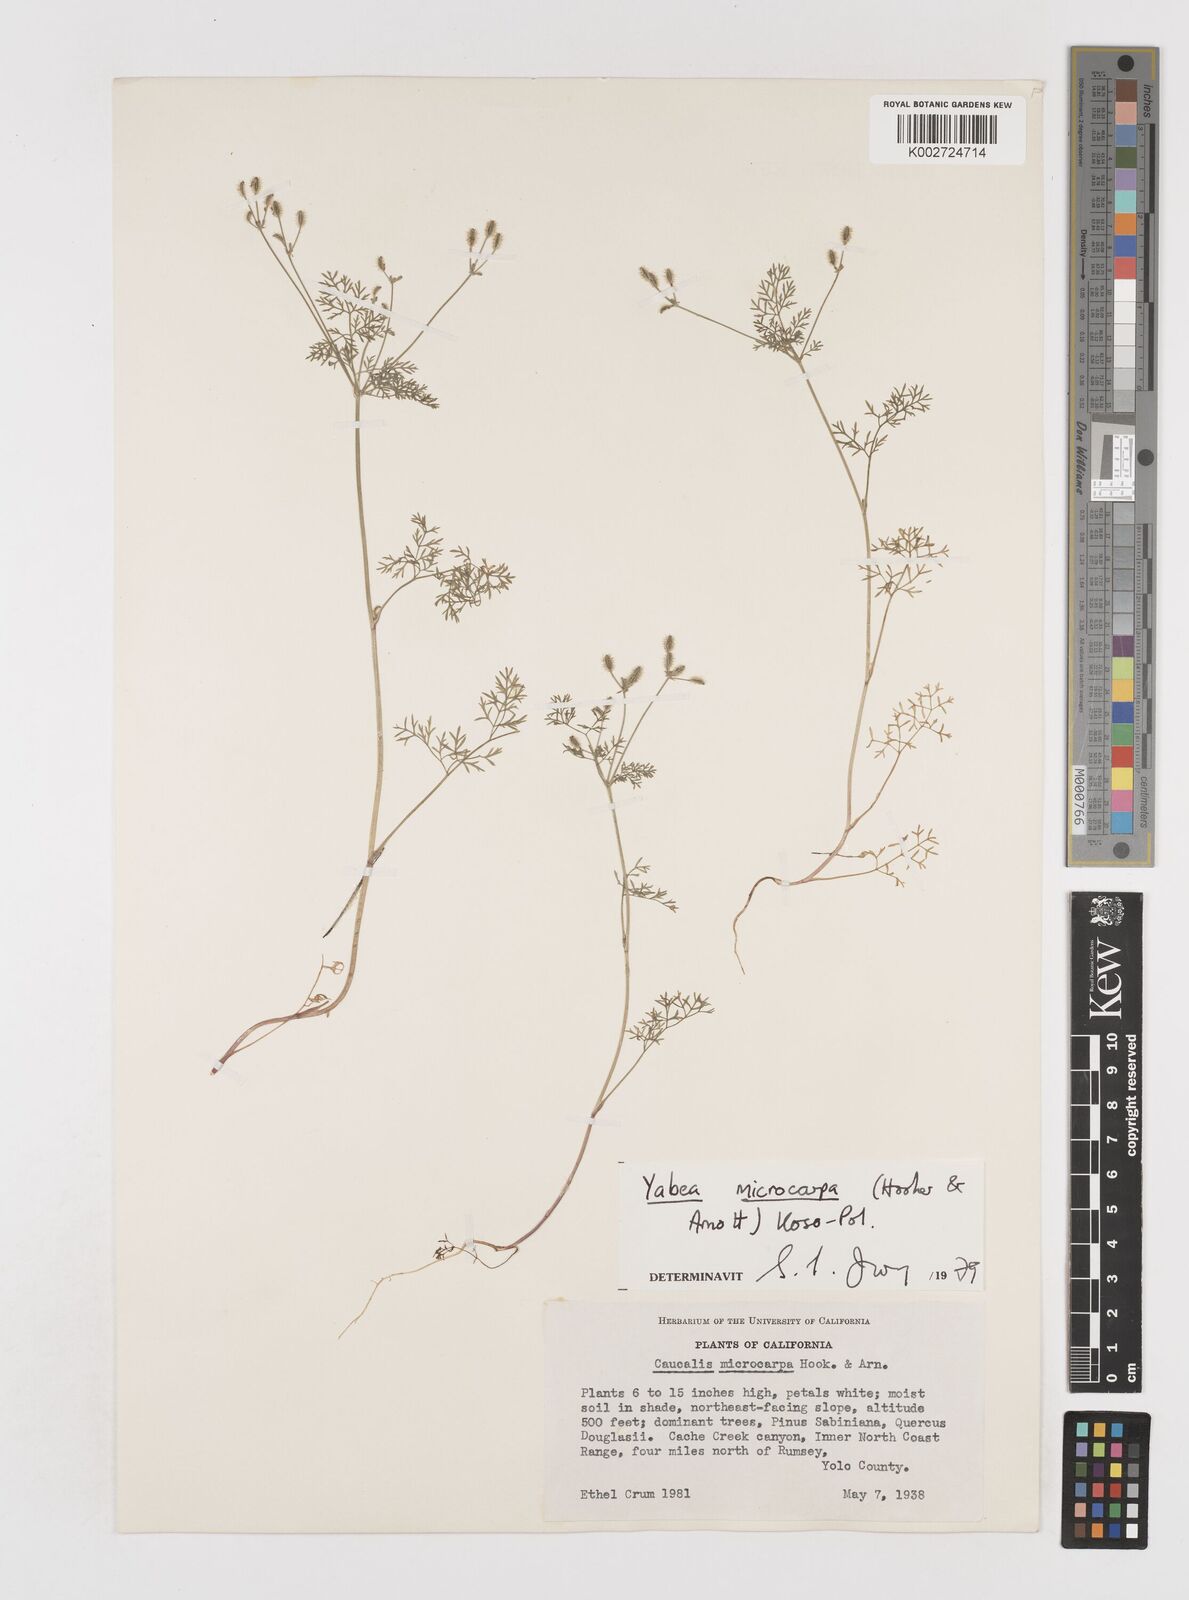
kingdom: Plantae
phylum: Tracheophyta
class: Magnoliopsida
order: Apiales
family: Apiaceae
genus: Yabea
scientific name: Yabea microcarpa
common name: False carrot
